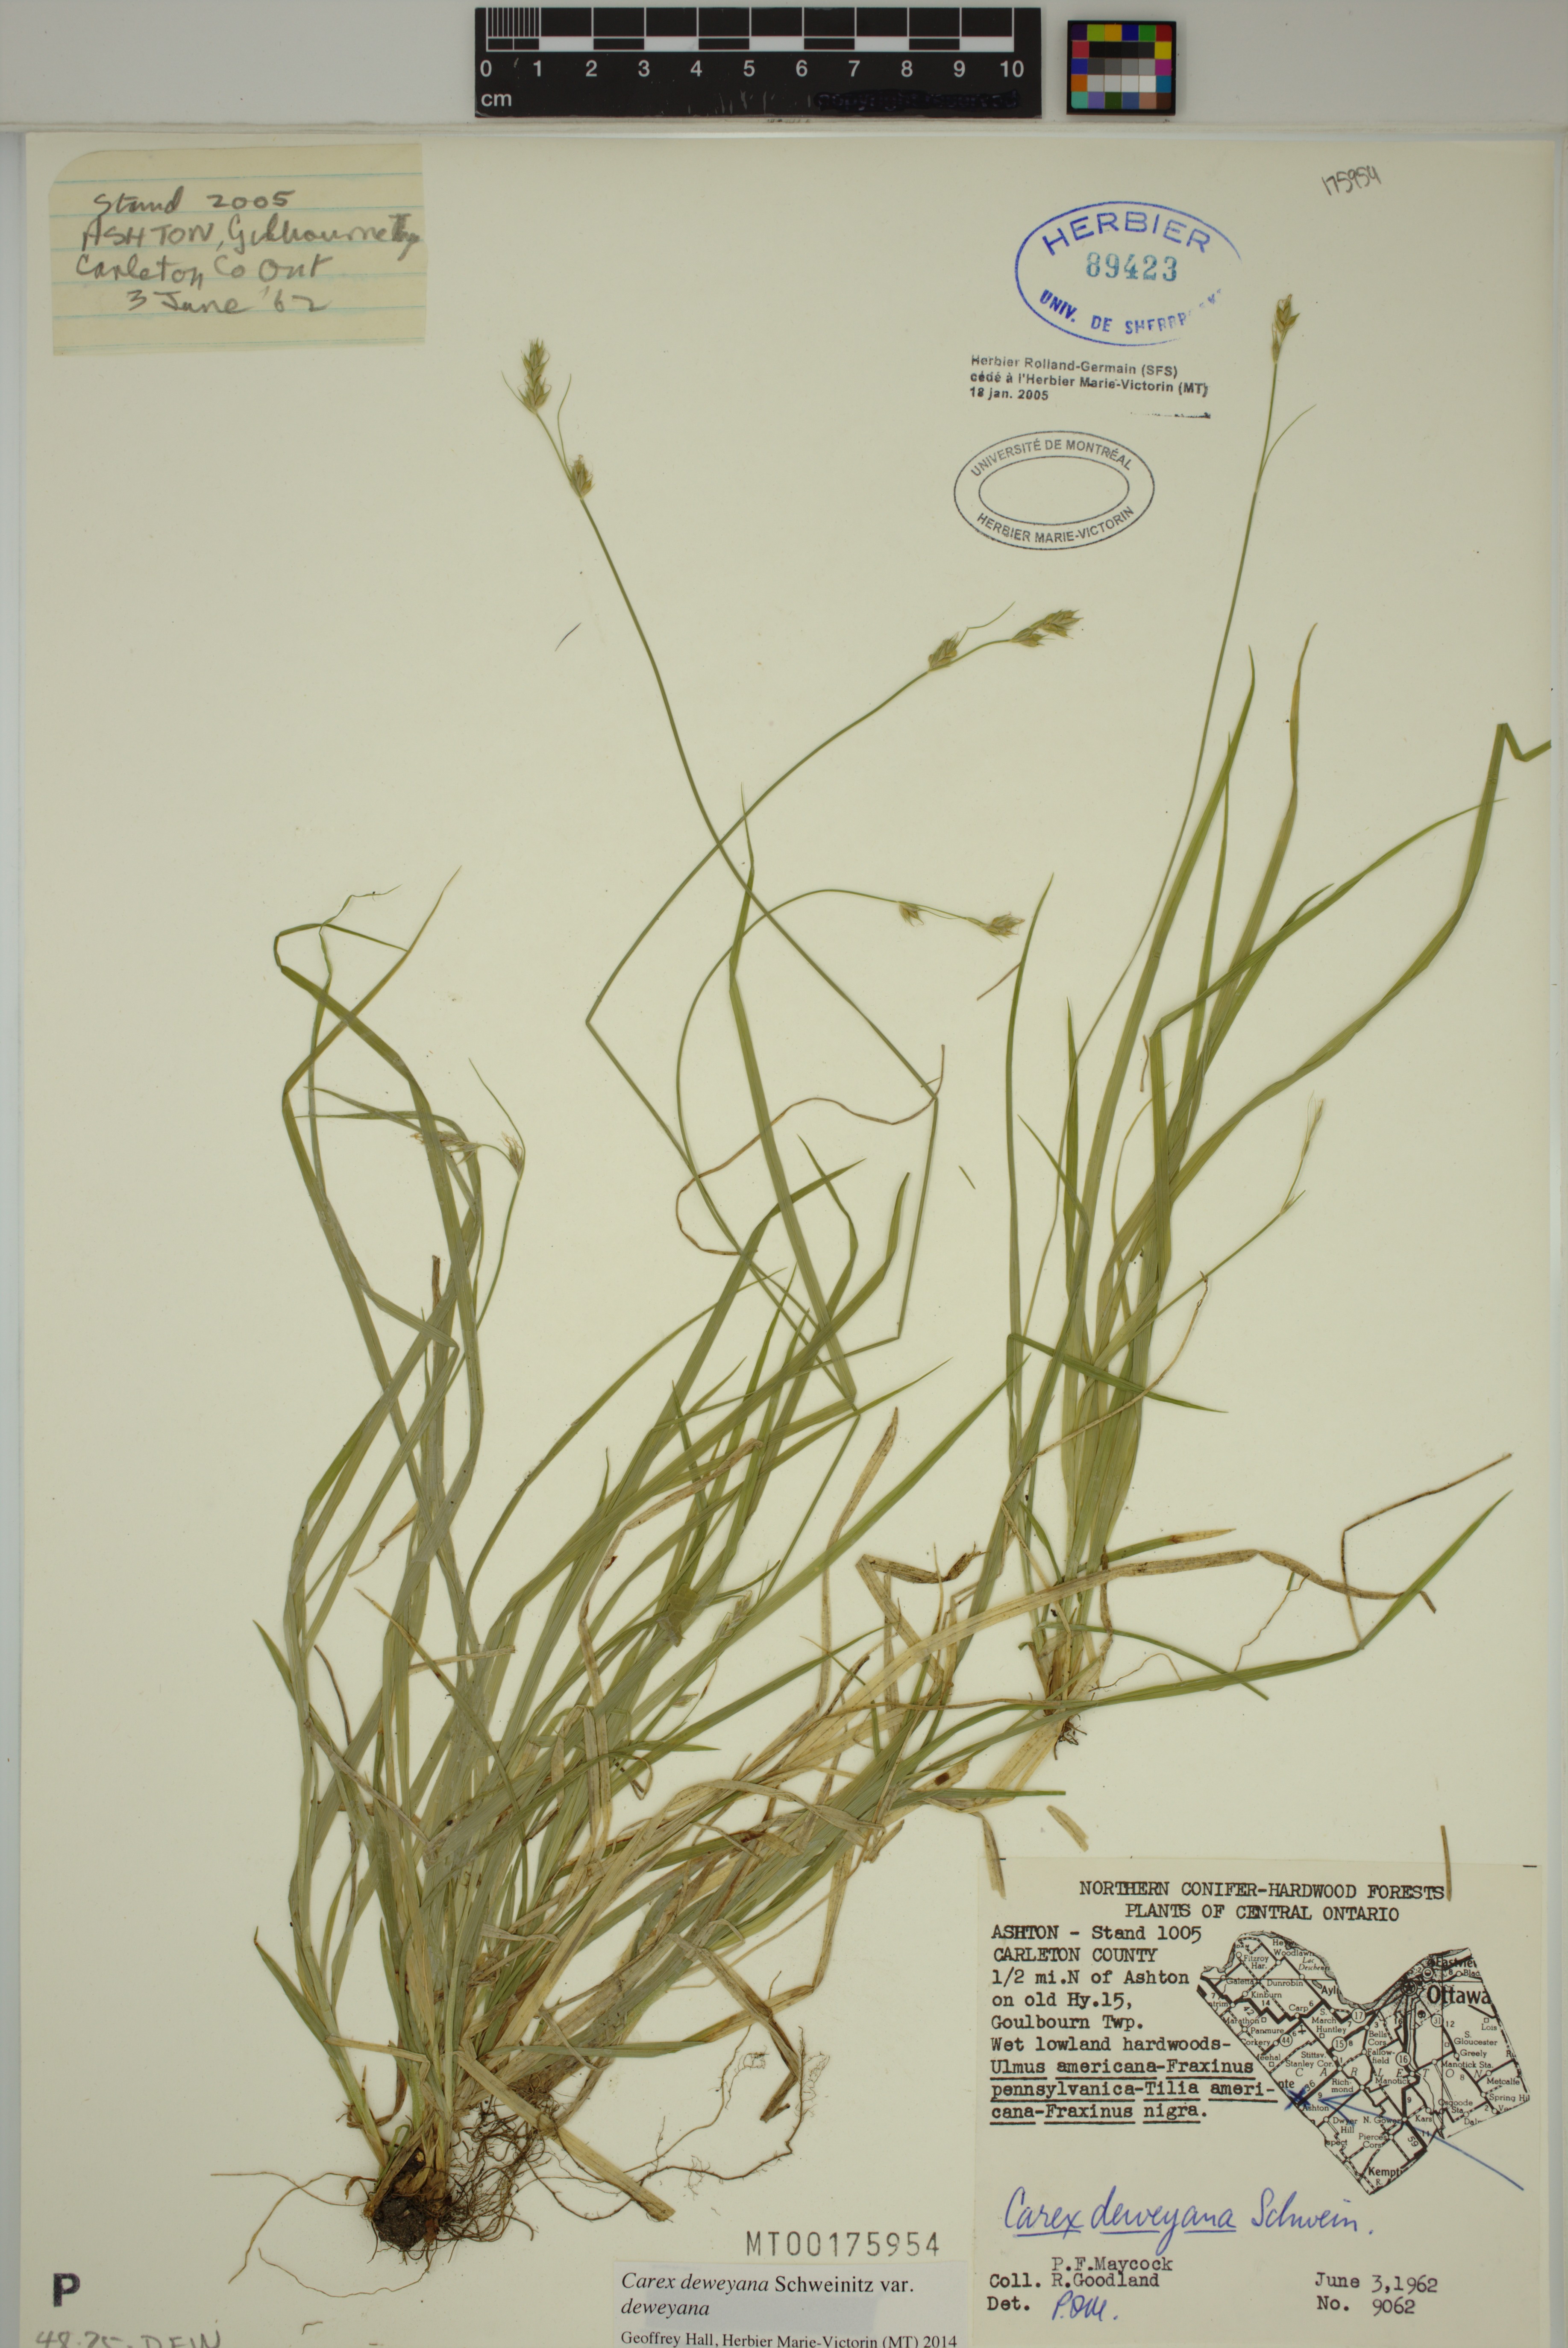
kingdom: Plantae
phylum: Tracheophyta
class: Liliopsida
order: Poales
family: Cyperaceae
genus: Carex
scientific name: Carex deweyana
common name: Dewey's sedge
